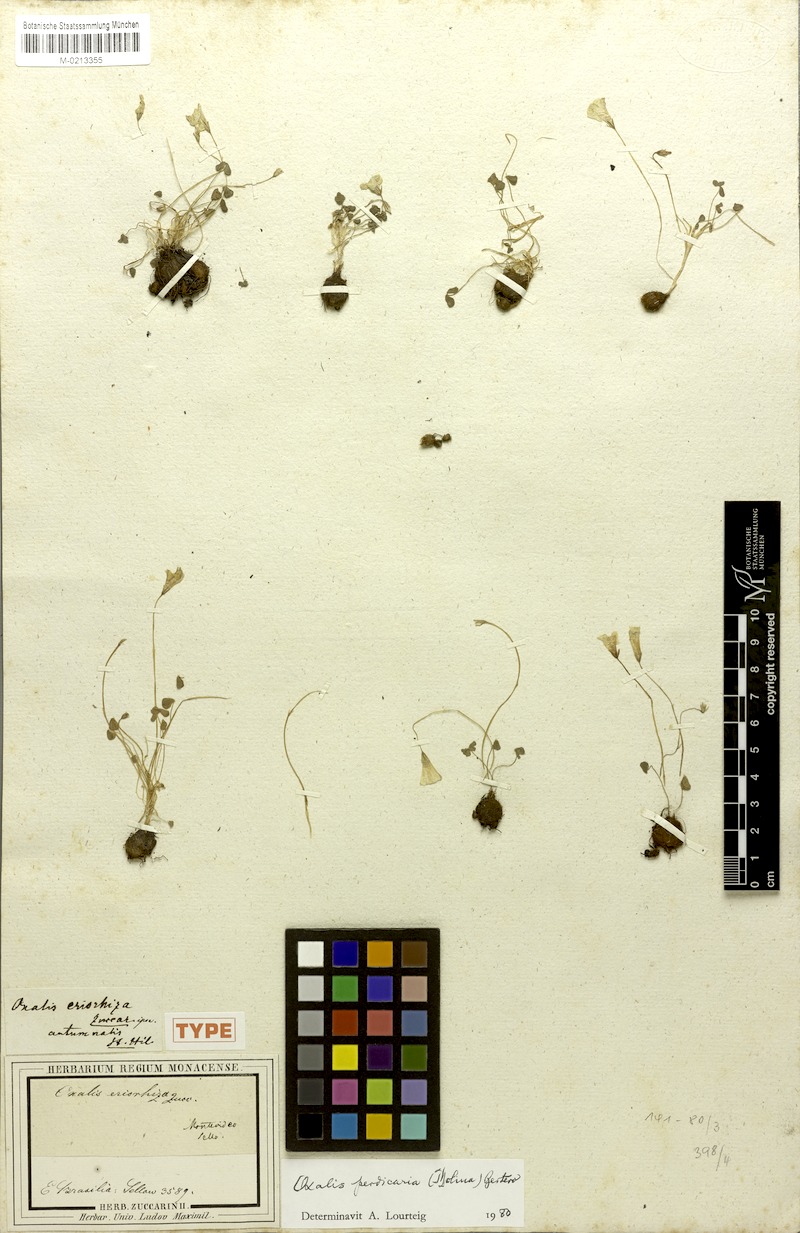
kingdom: Plantae
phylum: Tracheophyta
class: Magnoliopsida
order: Oxalidales
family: Oxalidaceae
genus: Oxalis
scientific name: Oxalis perdicaria
